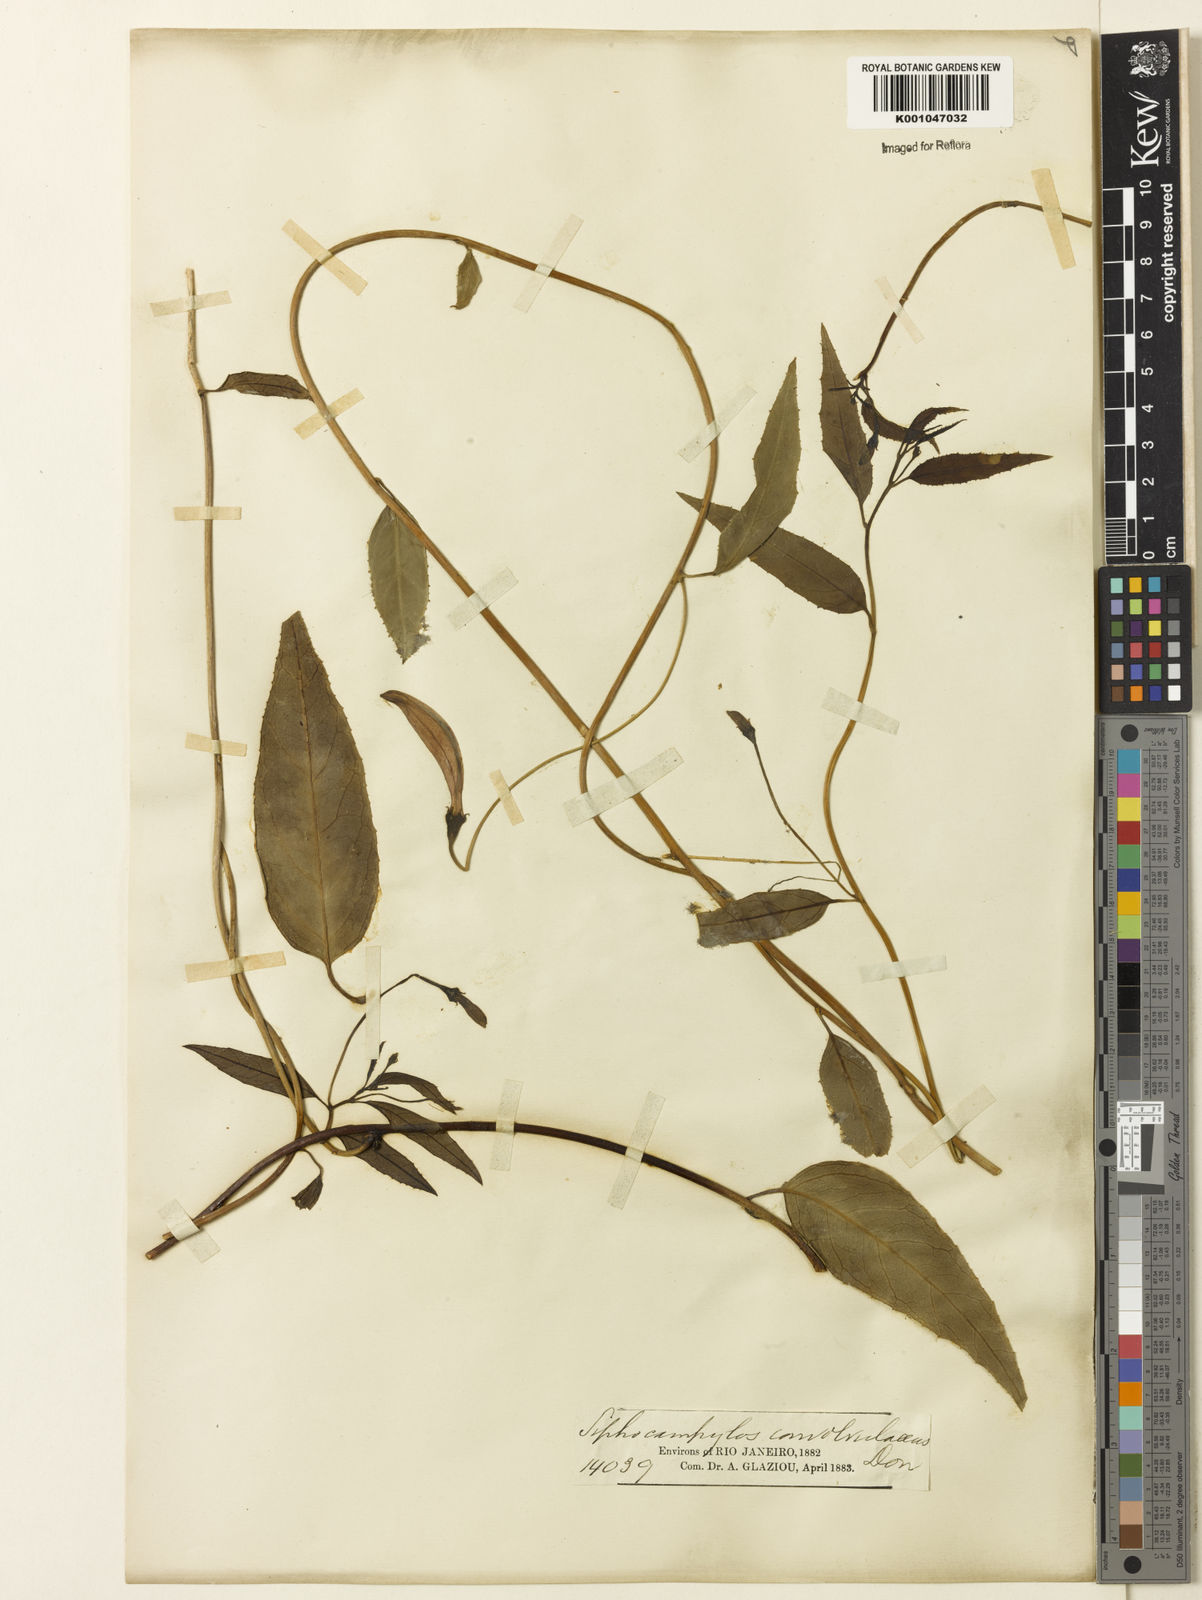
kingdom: Plantae
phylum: Tracheophyta
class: Magnoliopsida
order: Asterales
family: Campanulaceae
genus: Siphocampylus
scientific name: Siphocampylus convolvulaceus
